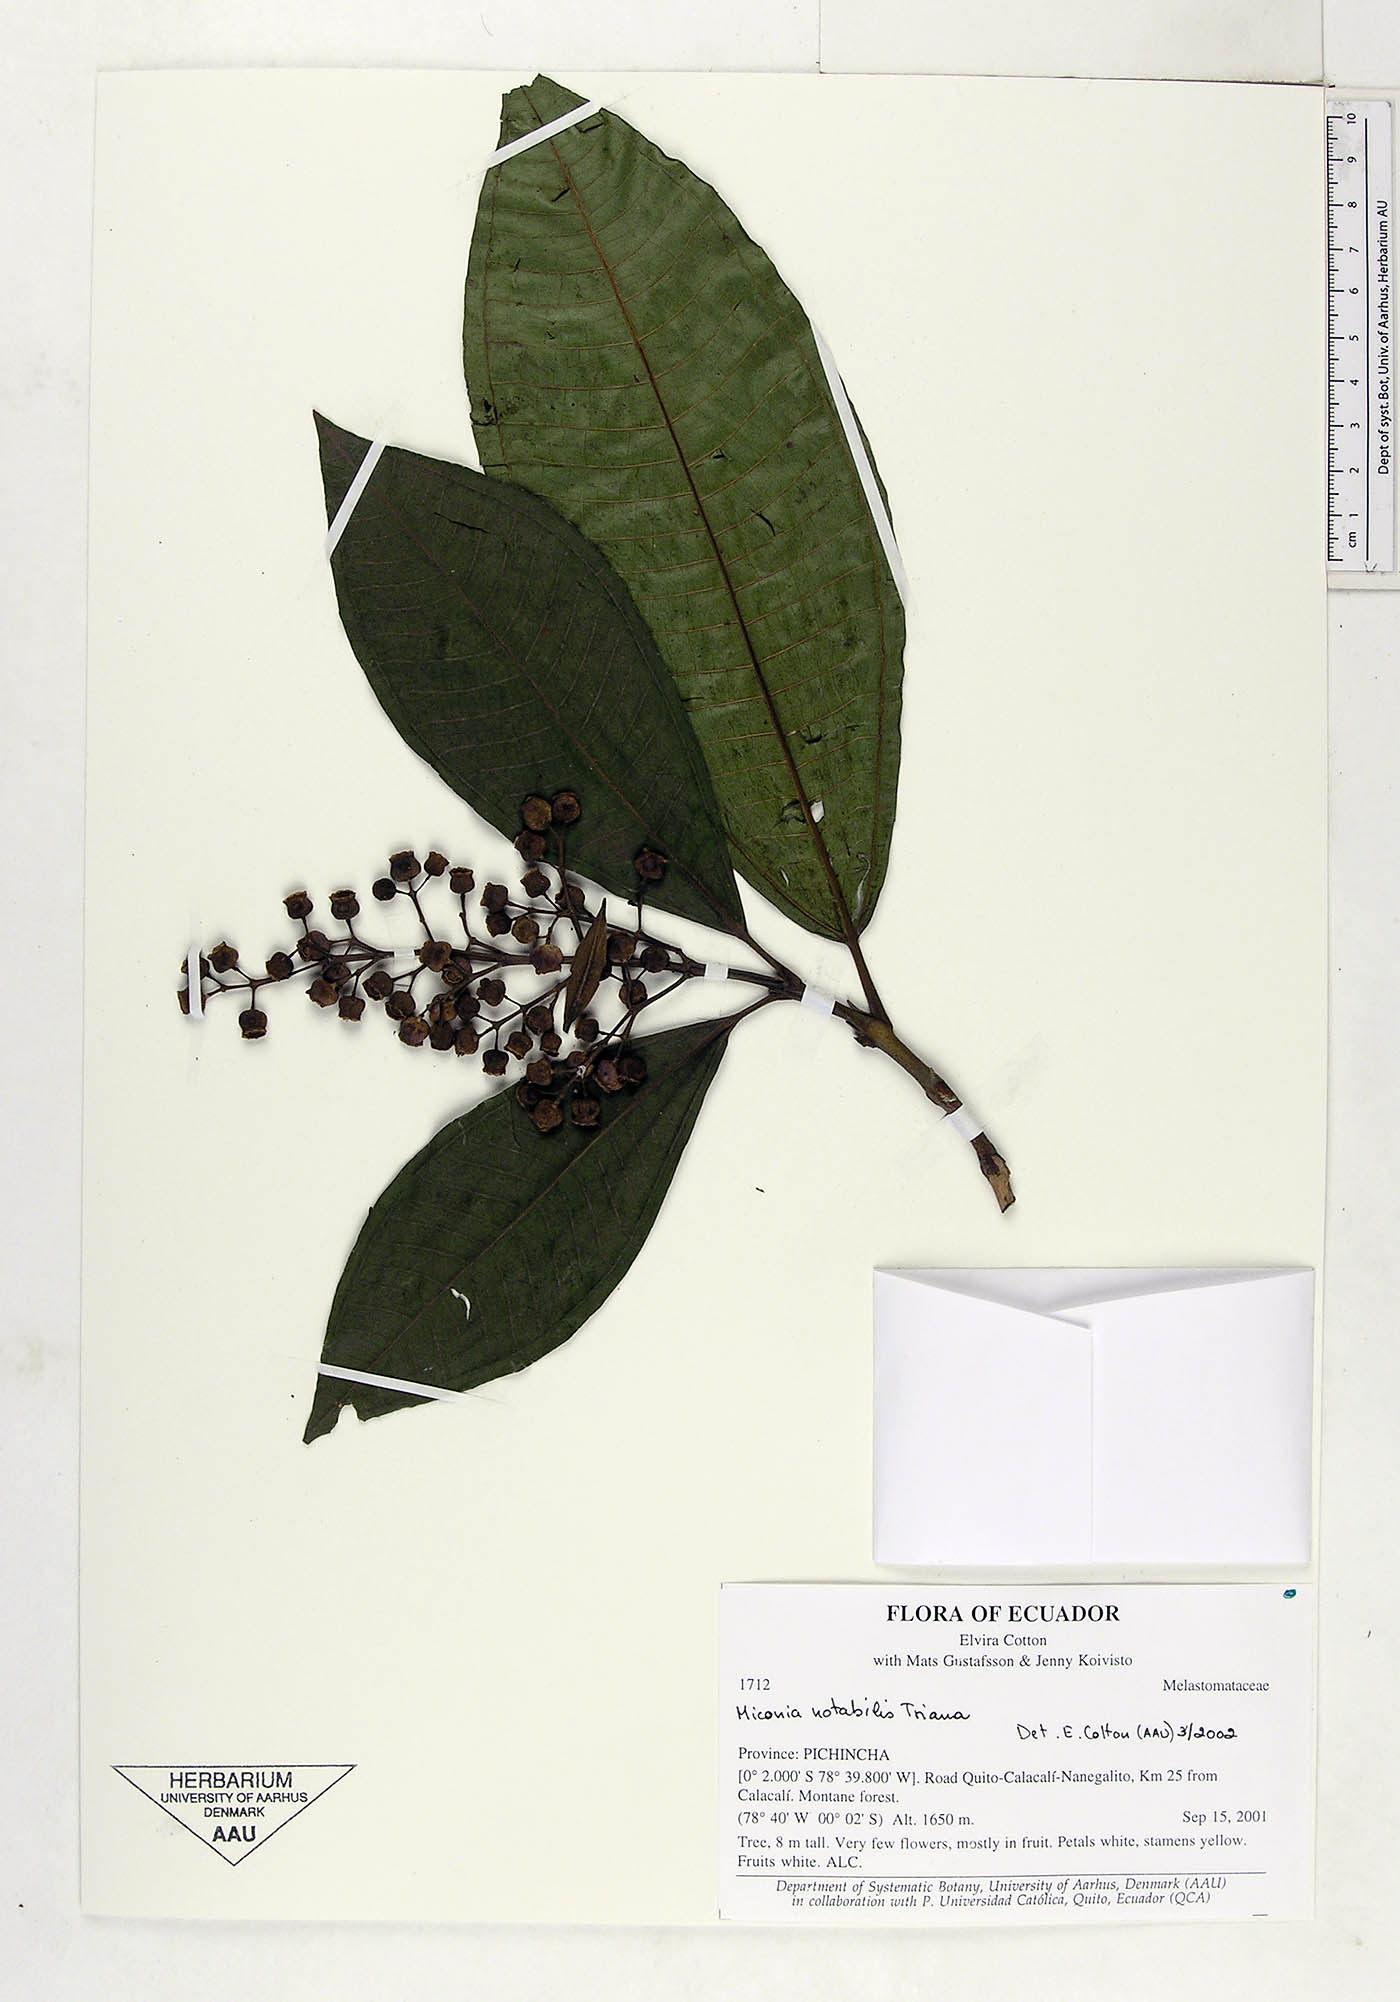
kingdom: Plantae
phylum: Tracheophyta
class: Magnoliopsida
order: Myrtales
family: Melastomataceae
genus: Miconia
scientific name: Miconia notabilis
